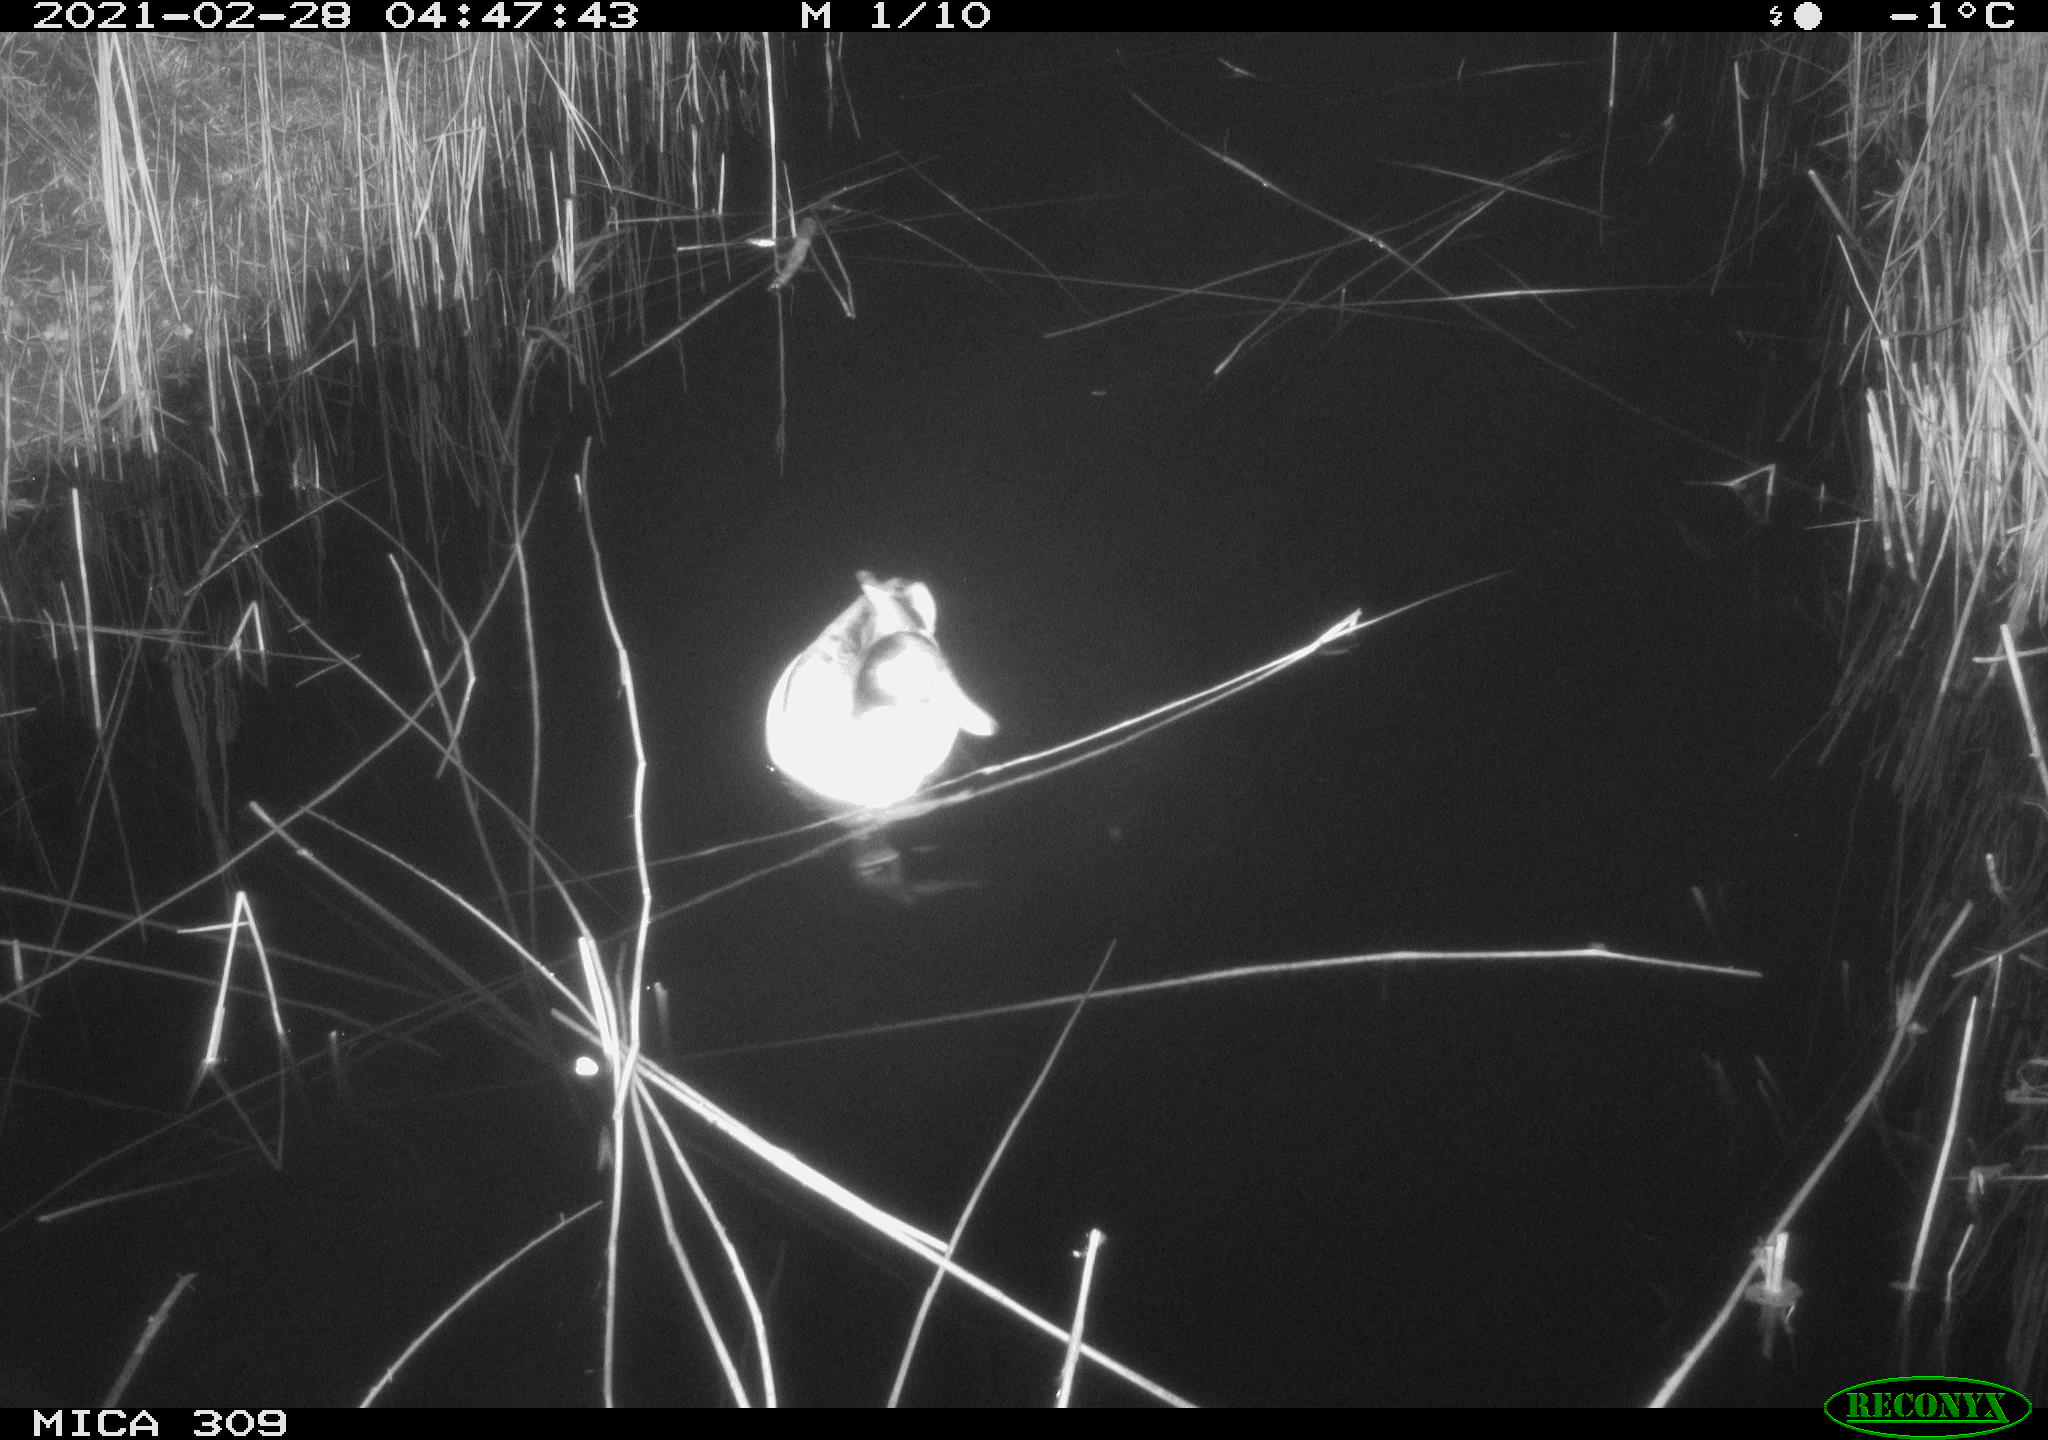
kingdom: Animalia
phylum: Chordata
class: Aves
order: Anseriformes
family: Anatidae
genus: Anas
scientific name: Anas platyrhynchos
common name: Mallard
